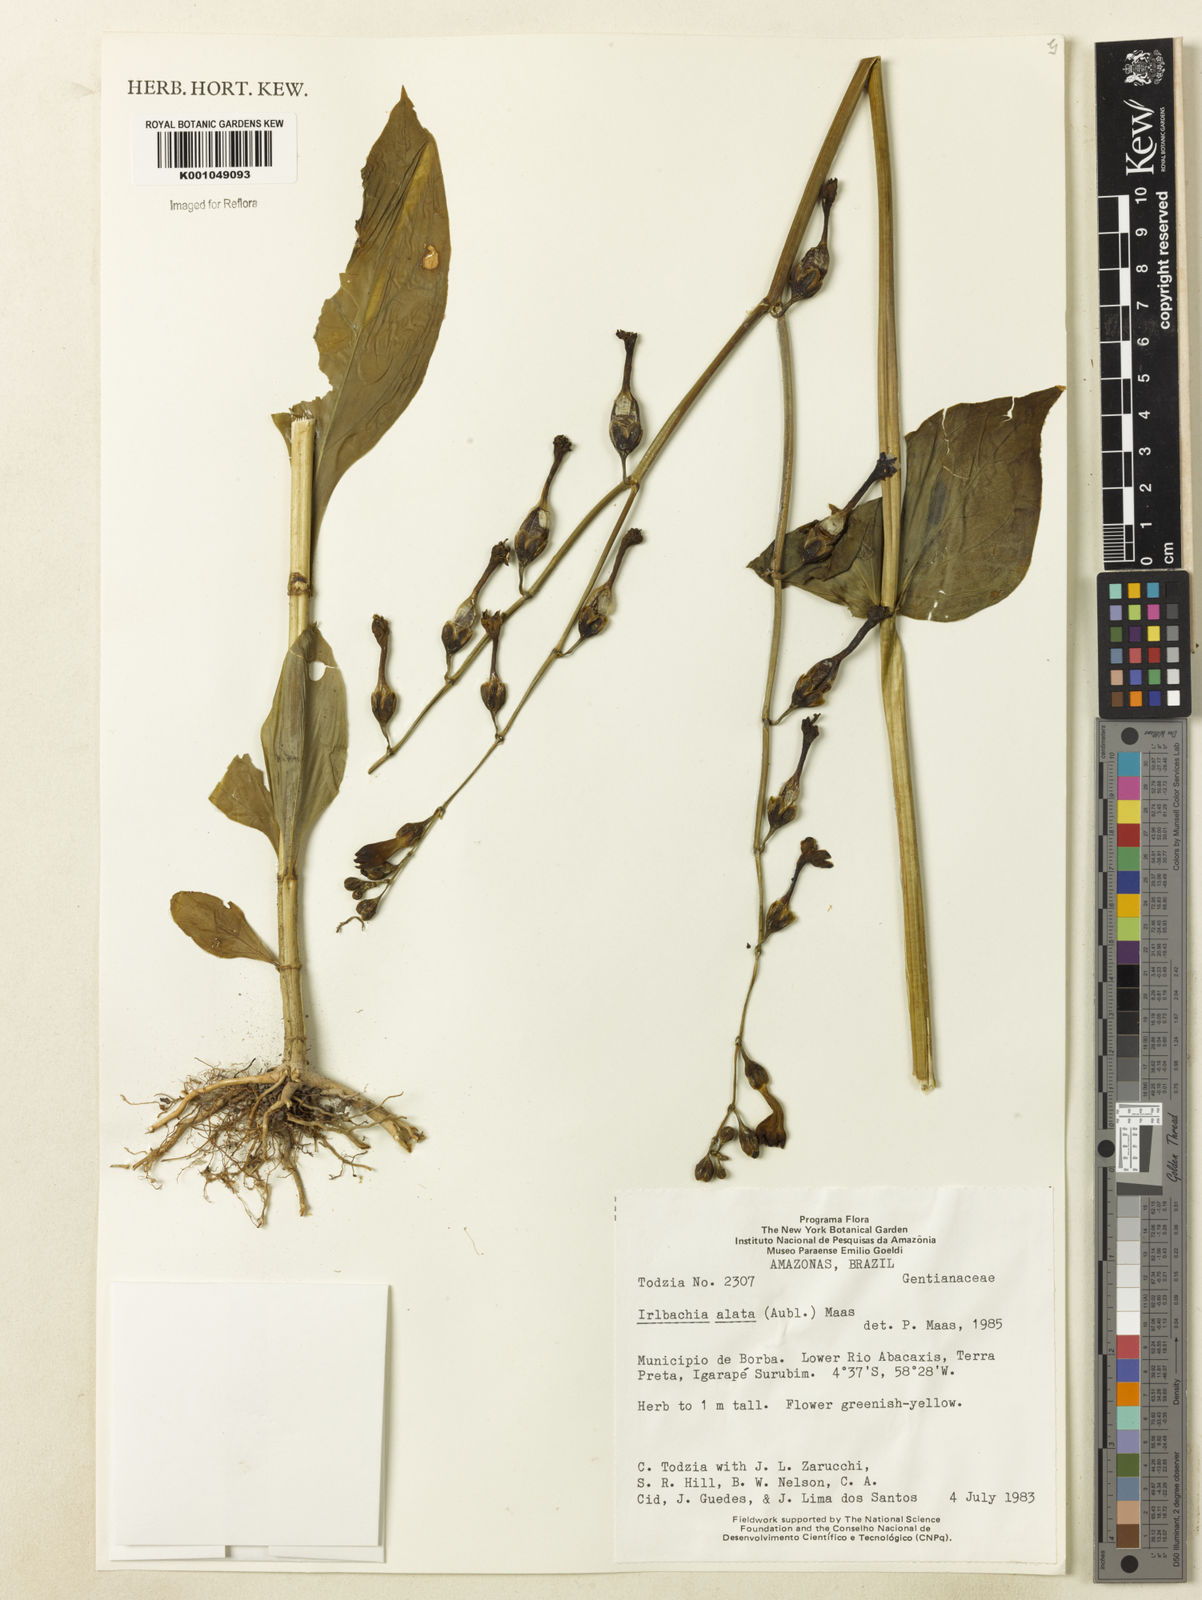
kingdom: Plantae
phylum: Tracheophyta
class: Magnoliopsida
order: Gentianales
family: Gentianaceae
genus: Chelonanthus
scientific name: Chelonanthus alatus
